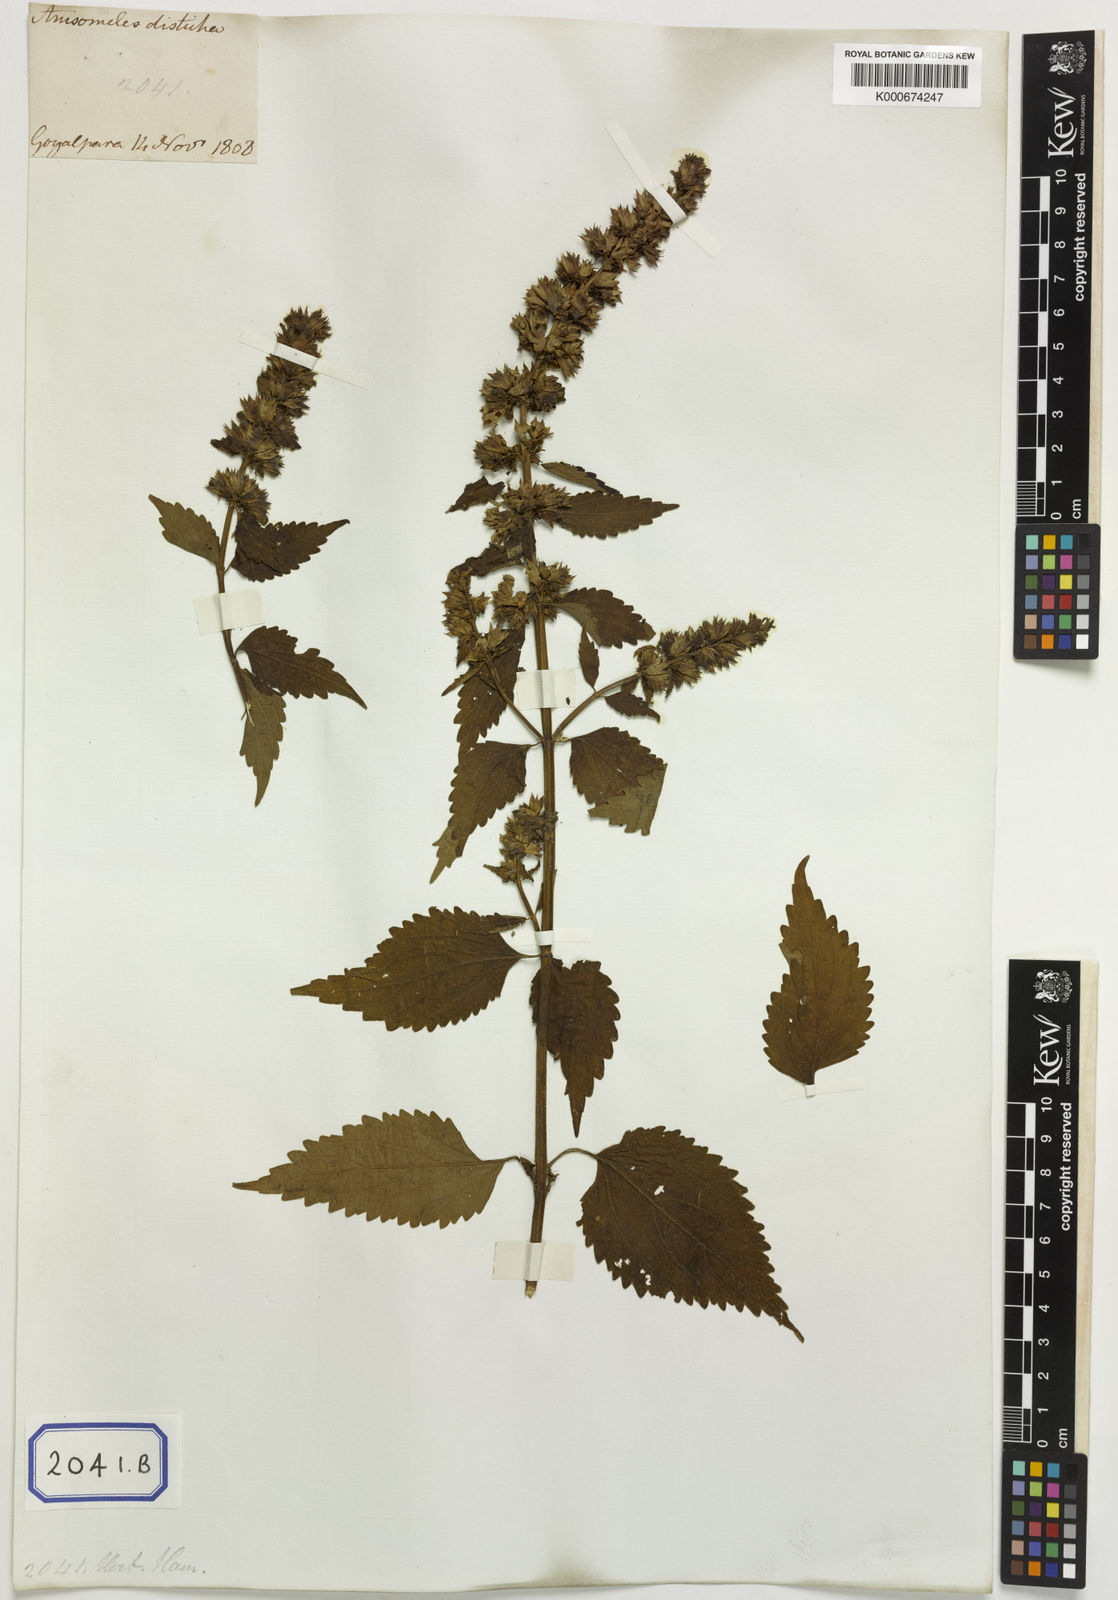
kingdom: Plantae
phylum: Tracheophyta
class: Magnoliopsida
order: Lamiales
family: Lamiaceae
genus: Anisomeles
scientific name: Anisomeles
